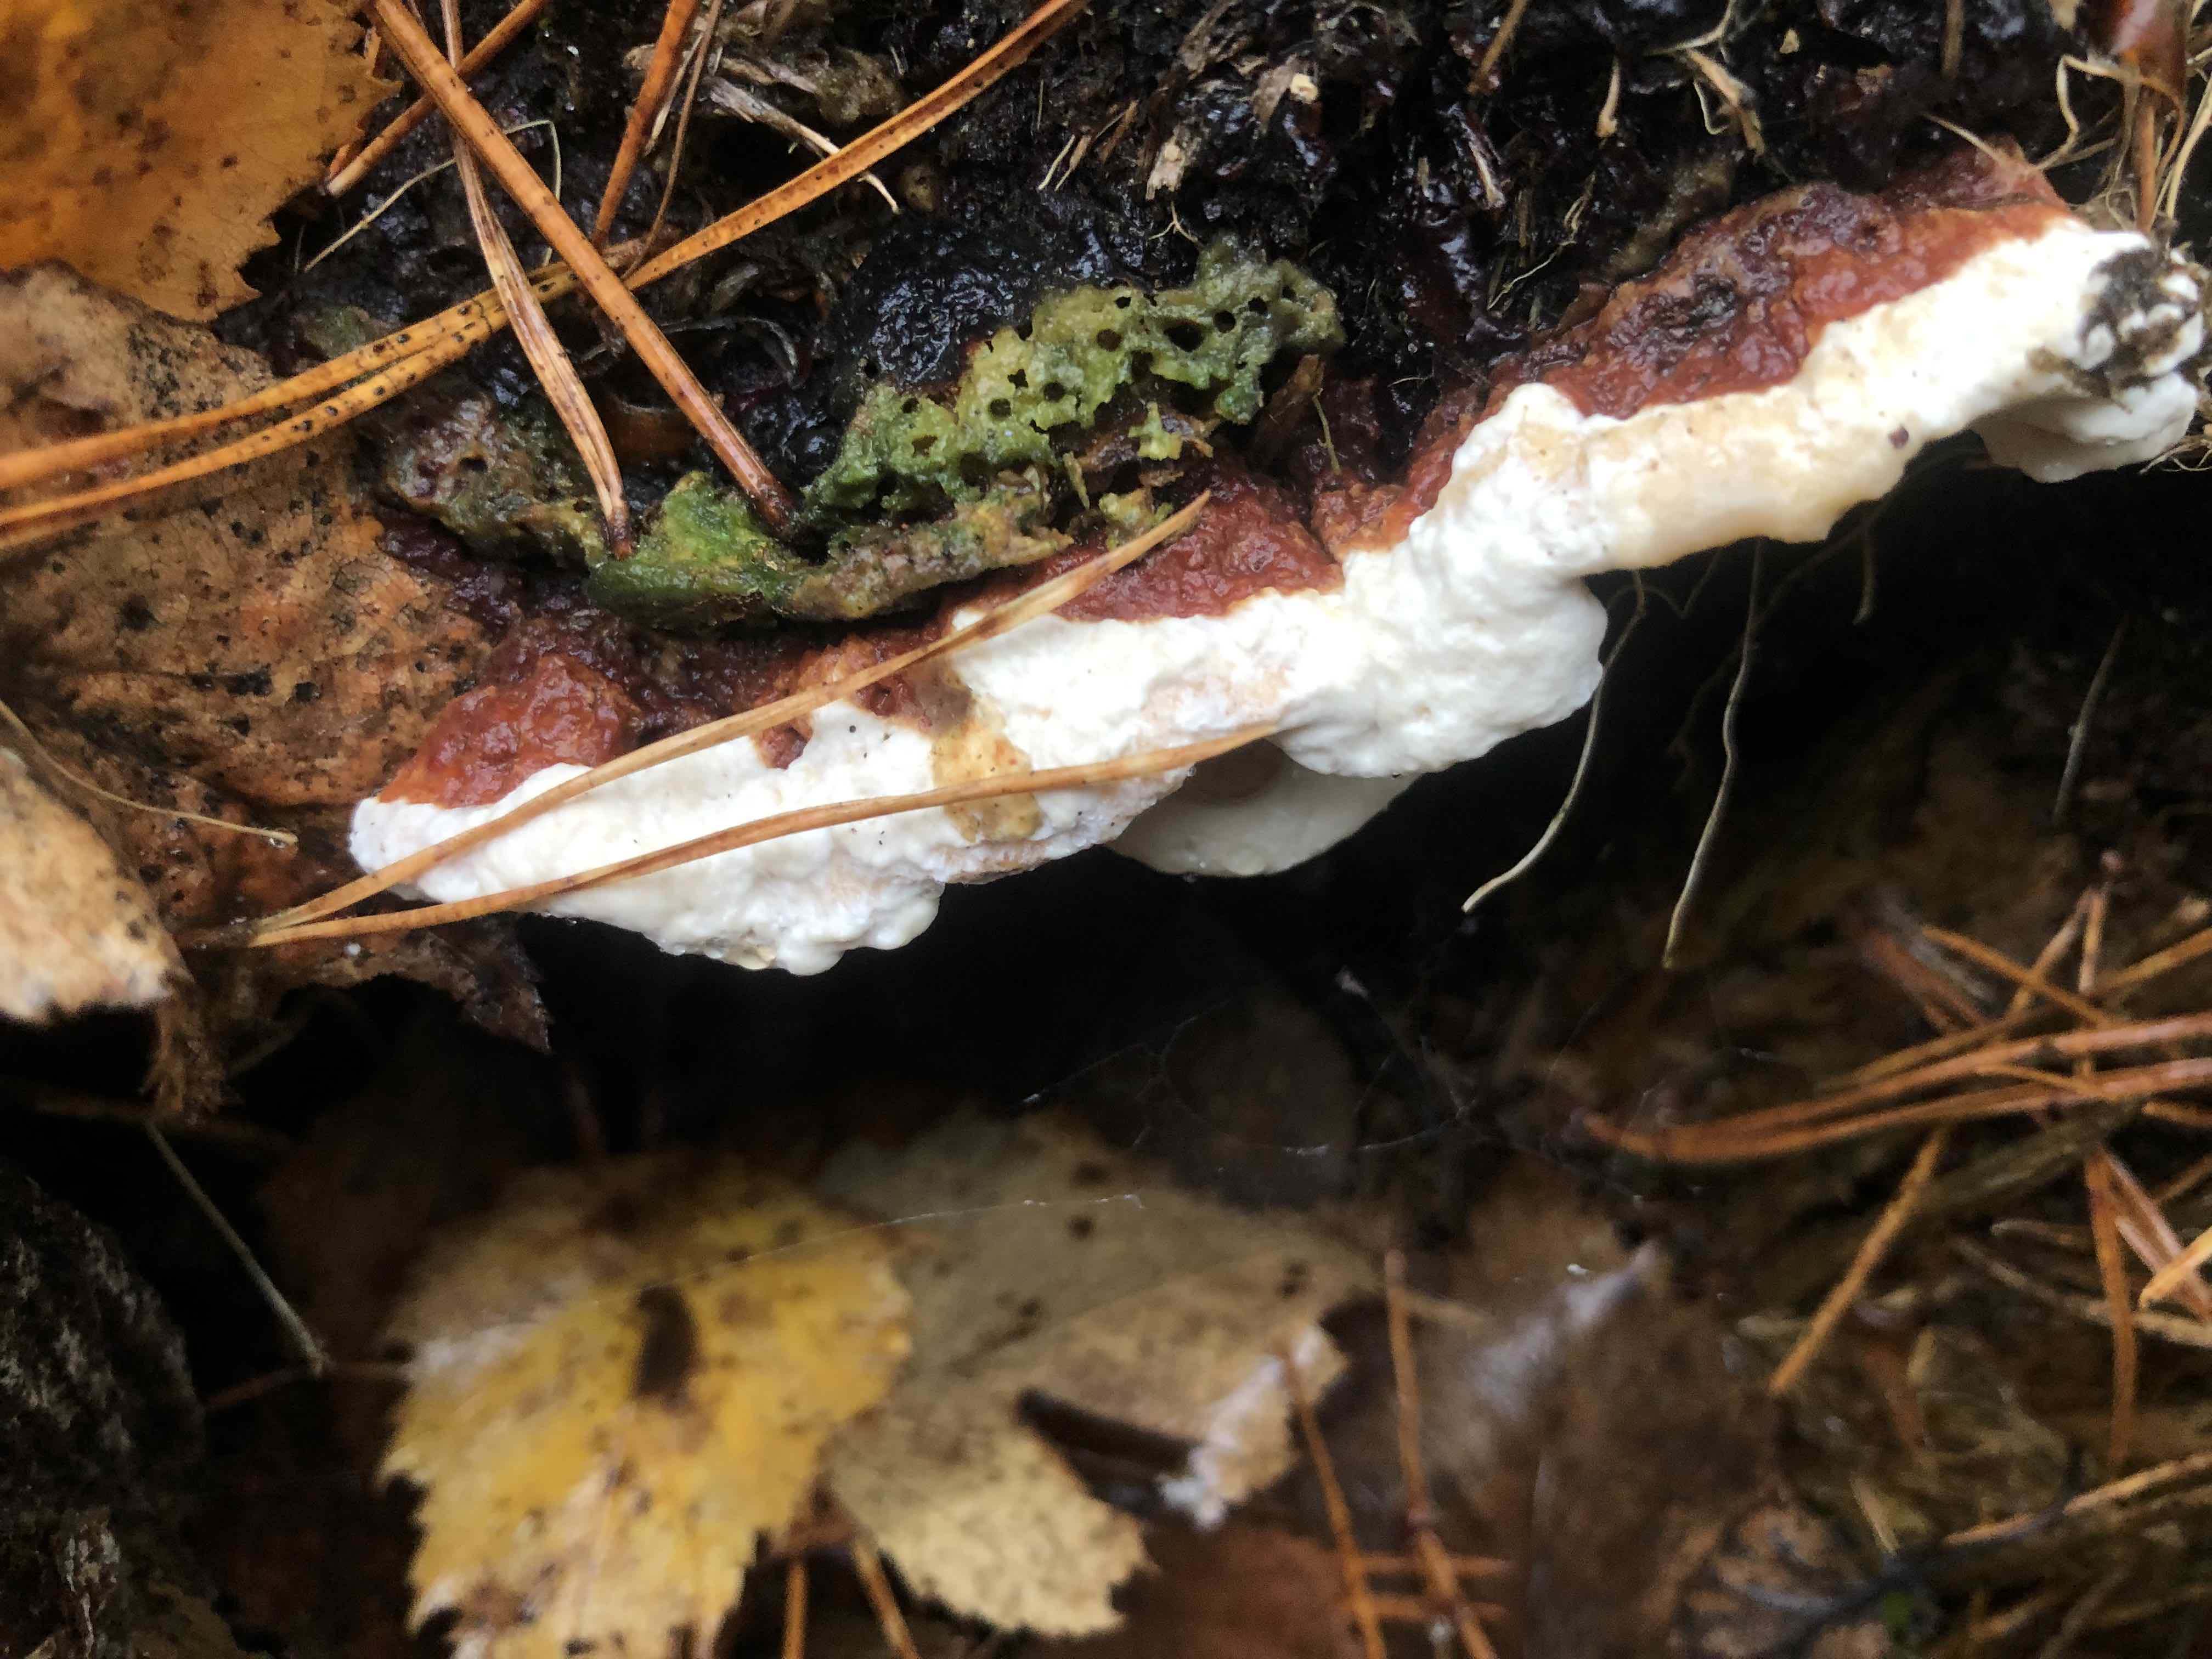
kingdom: Fungi
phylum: Basidiomycota
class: Agaricomycetes
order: Russulales
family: Bondarzewiaceae
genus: Heterobasidion
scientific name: Heterobasidion annosum
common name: almindelig rodfordærver
